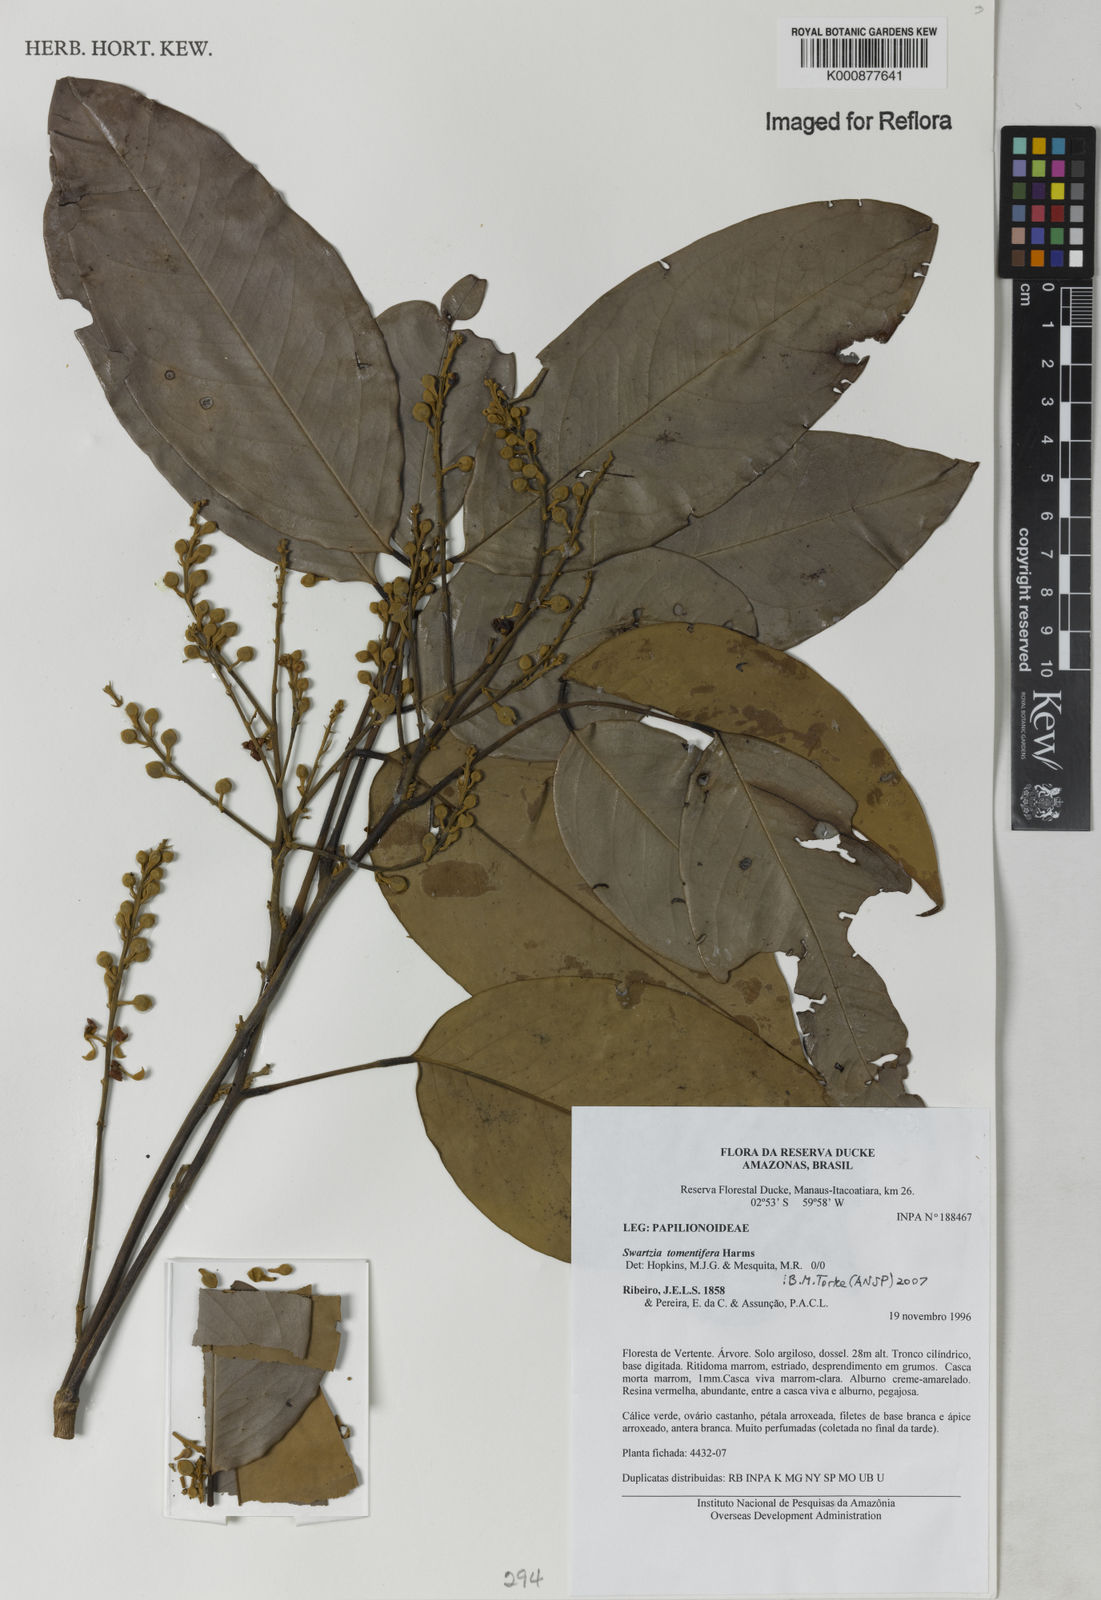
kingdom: Plantae
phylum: Tracheophyta
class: Magnoliopsida
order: Fabales
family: Fabaceae
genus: Swartzia
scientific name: Swartzia tomentifera
